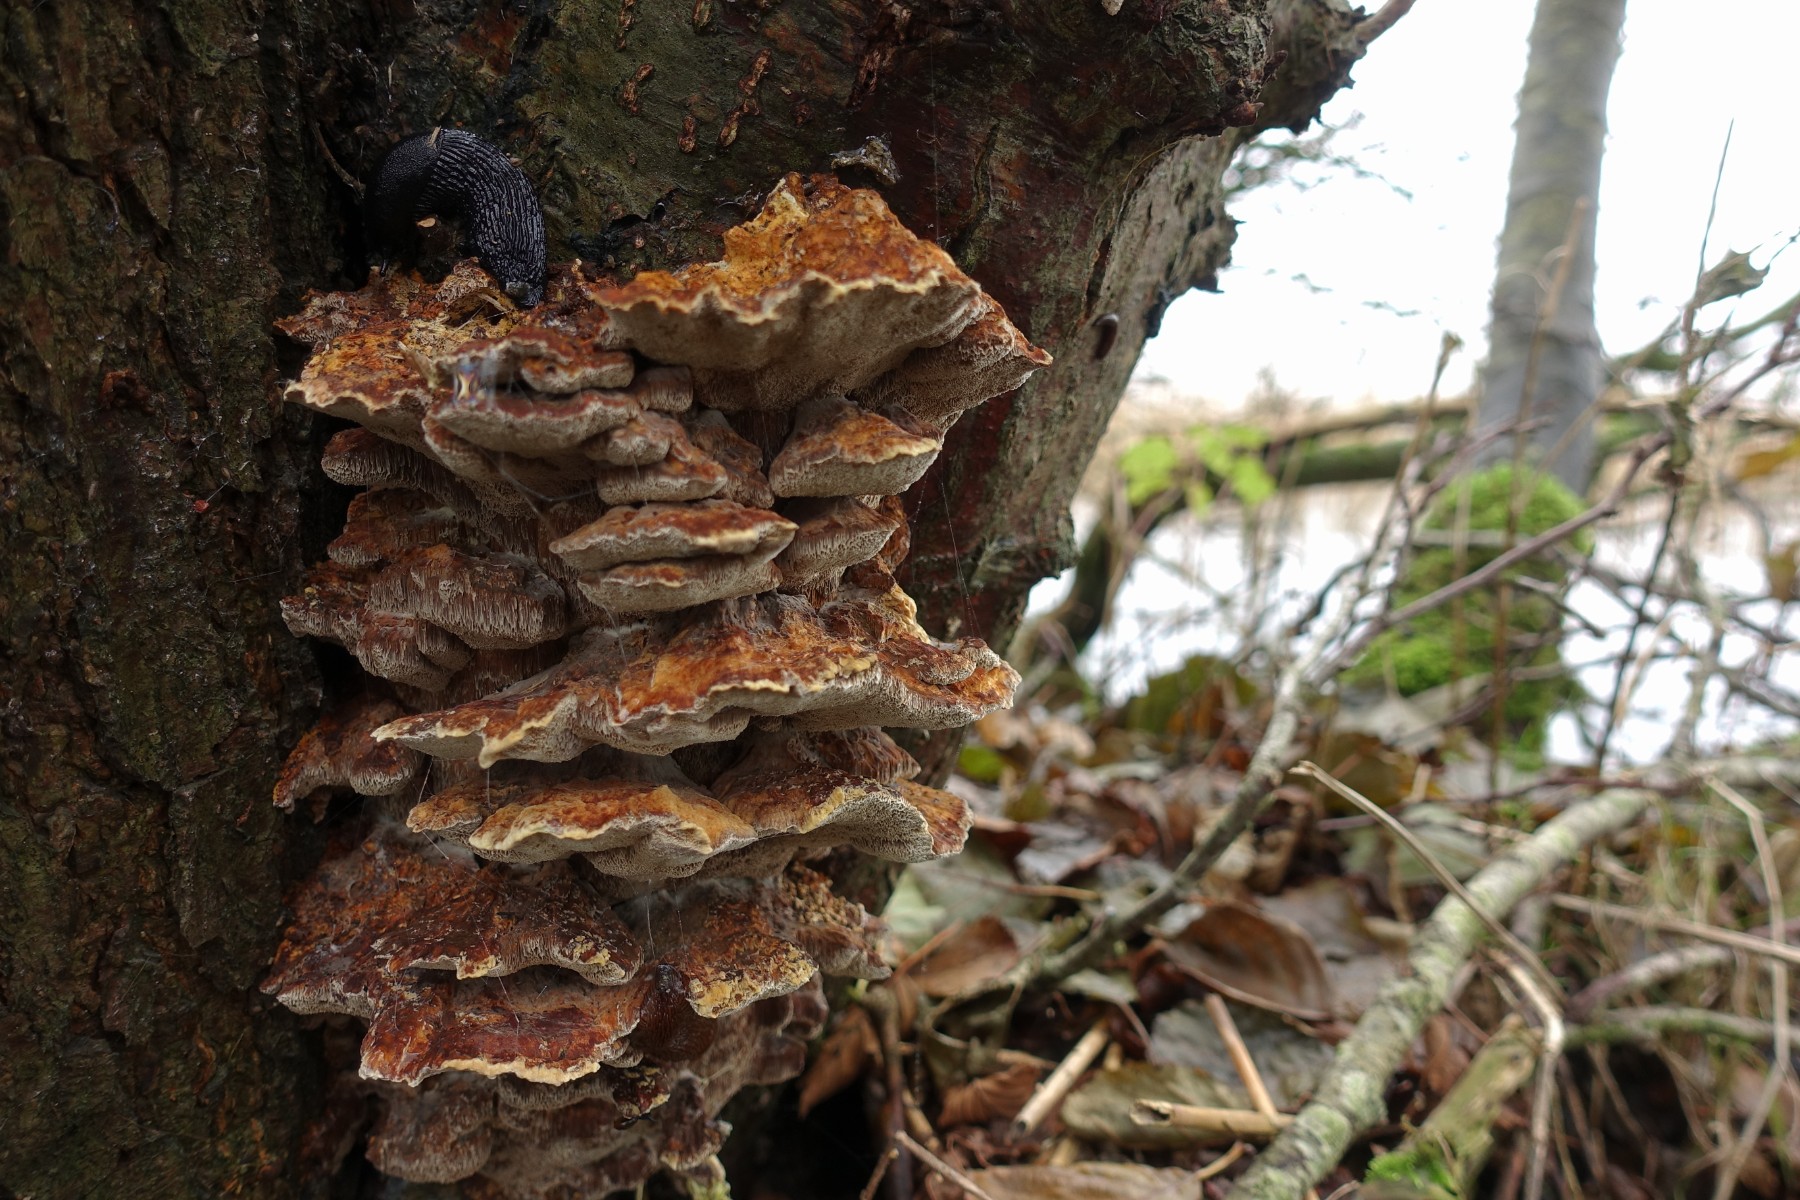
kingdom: Fungi
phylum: Basidiomycota
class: Agaricomycetes
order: Hymenochaetales
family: Hymenochaetaceae
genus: Xanthoporia
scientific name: Xanthoporia radiata
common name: elle-spejlporesvamp
